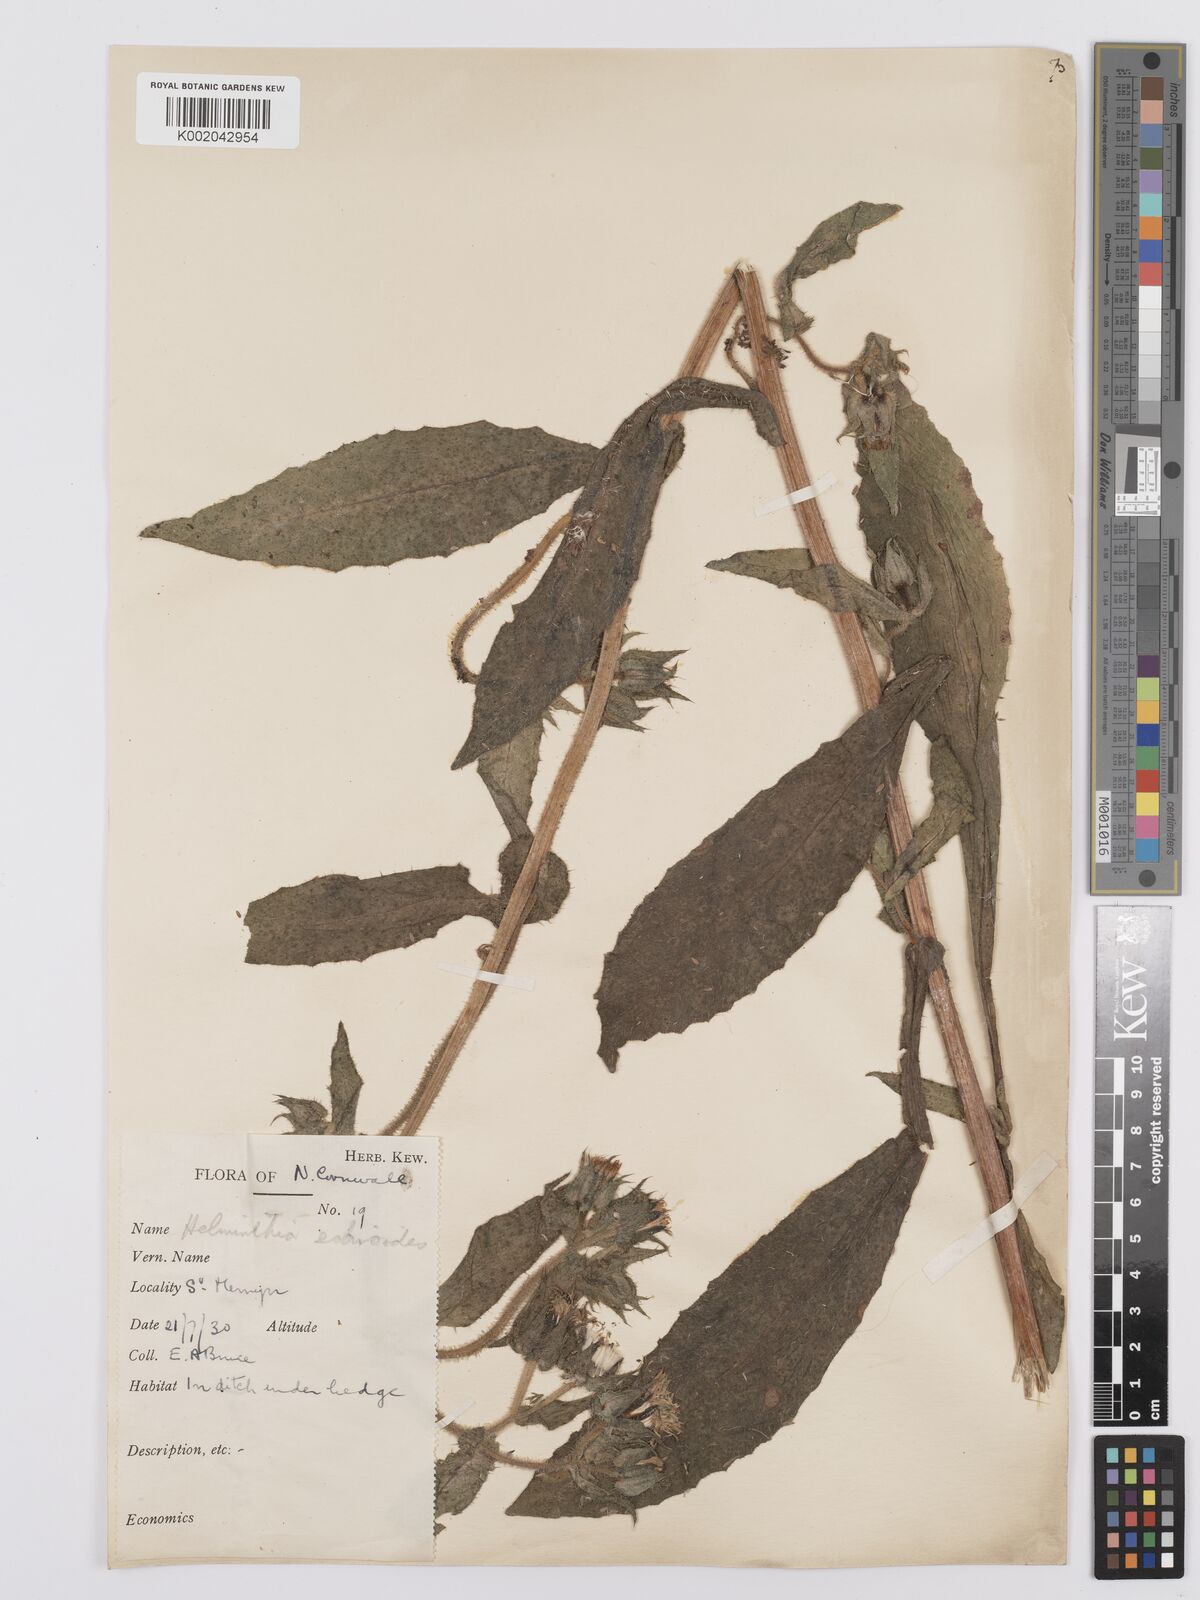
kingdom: Plantae
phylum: Tracheophyta
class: Magnoliopsida
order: Asterales
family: Asteraceae
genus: Helminthotheca
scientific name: Helminthotheca echioides
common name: Ox-tongue
